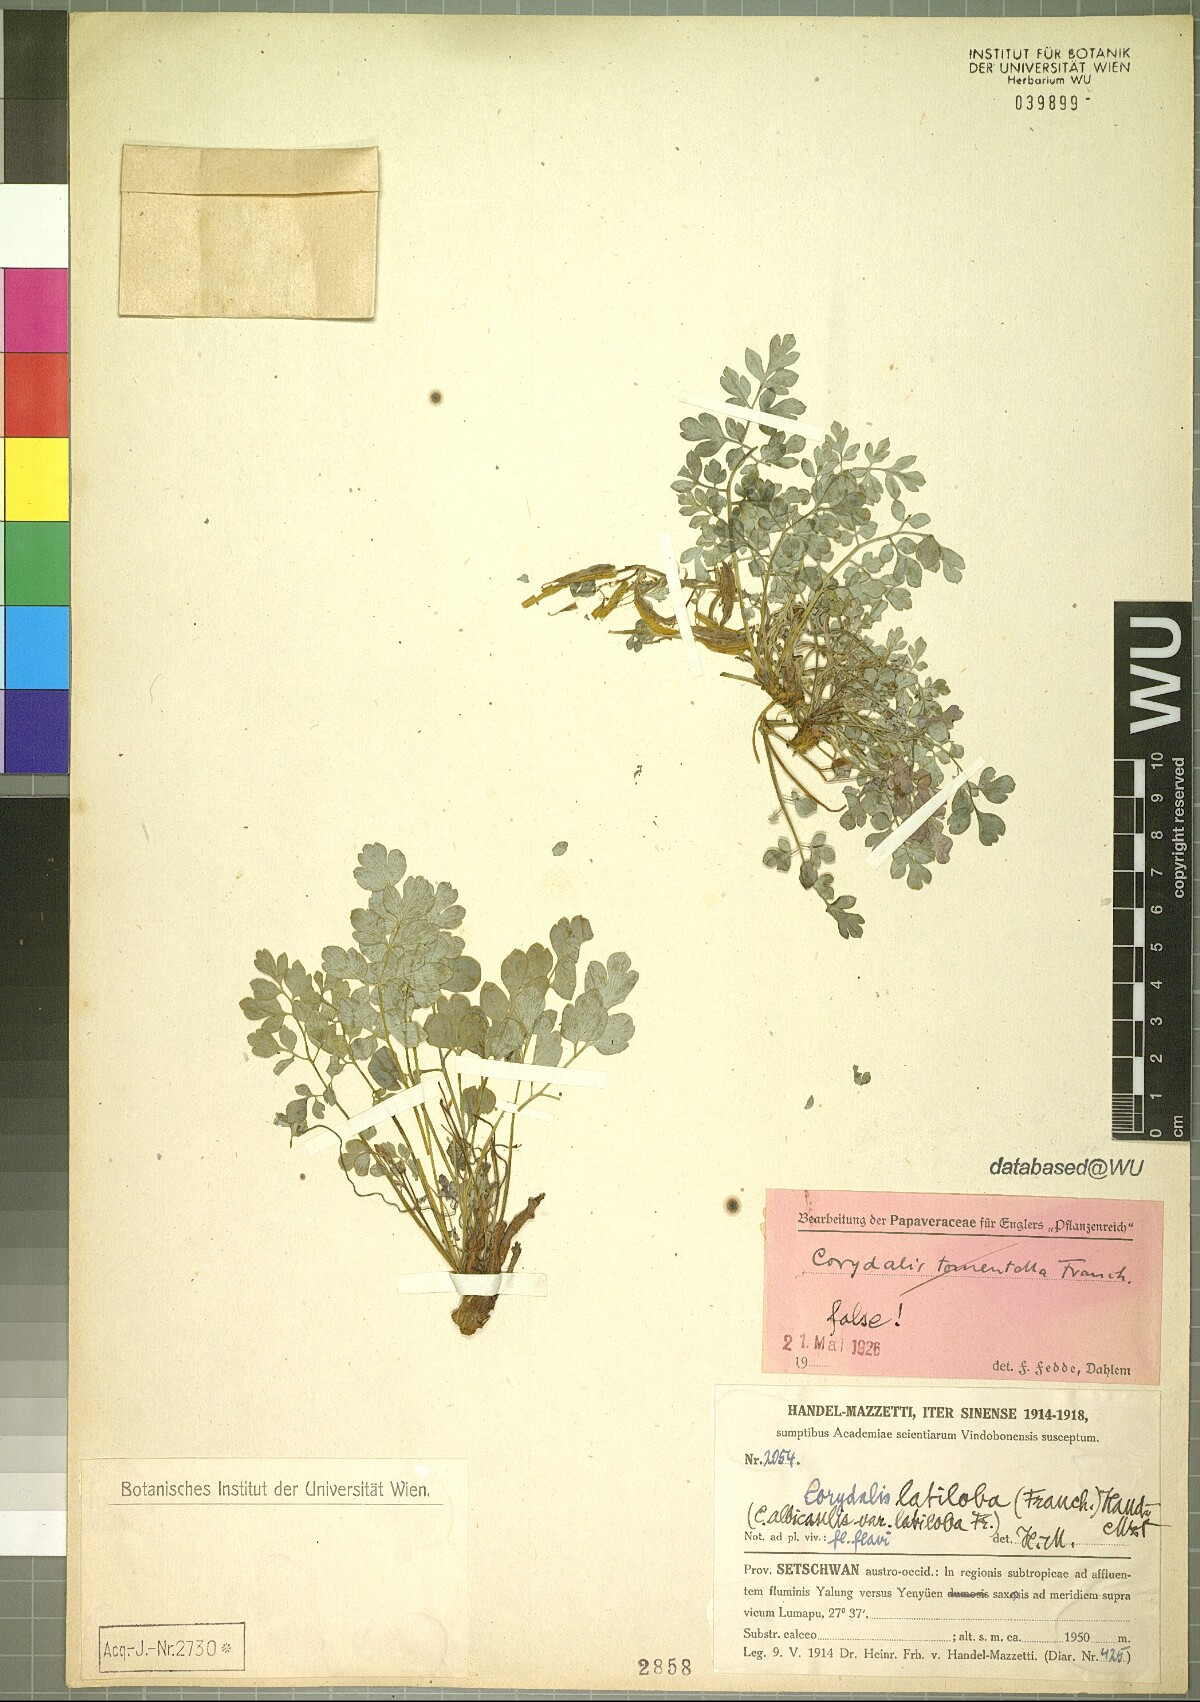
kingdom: Plantae
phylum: Tracheophyta
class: Magnoliopsida
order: Ranunculales
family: Papaveraceae
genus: Corydalis
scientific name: Corydalis latiloba
